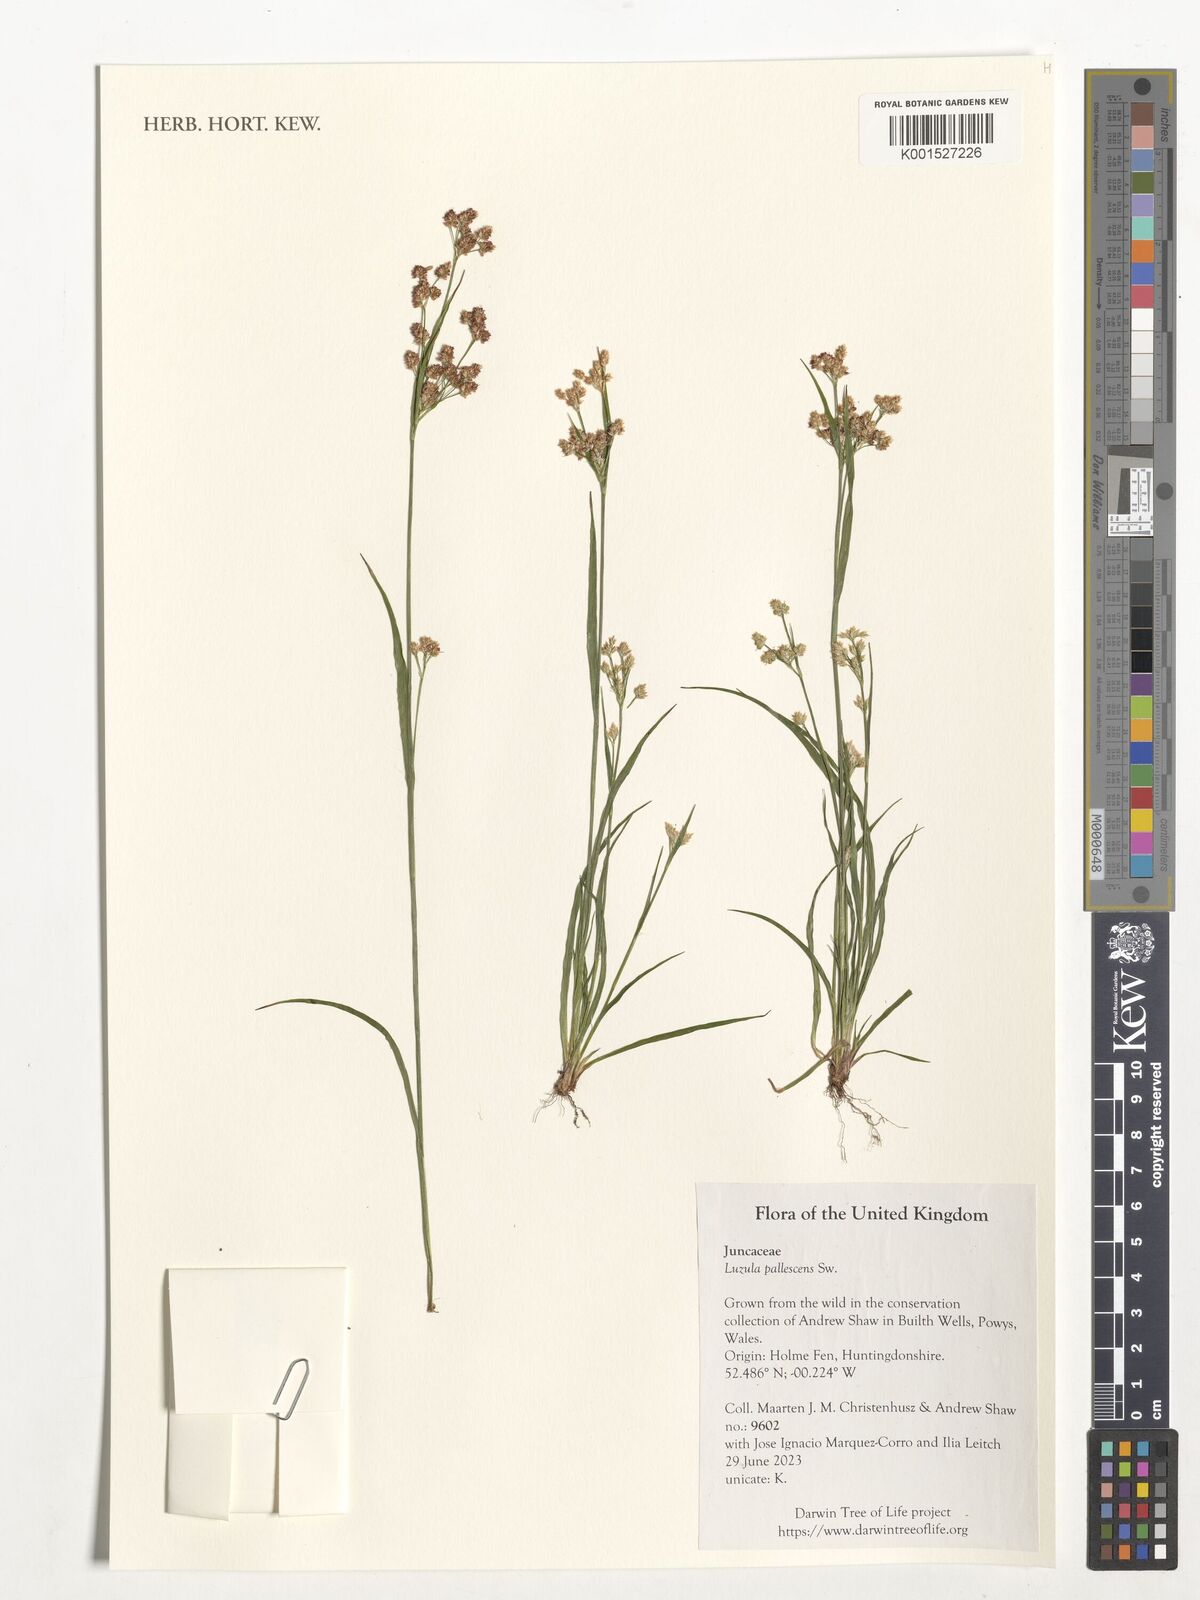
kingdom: Plantae
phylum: Tracheophyta
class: Liliopsida
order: Poales
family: Juncaceae
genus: Luzula
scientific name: Luzula pallescens
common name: Fen wood-rush
